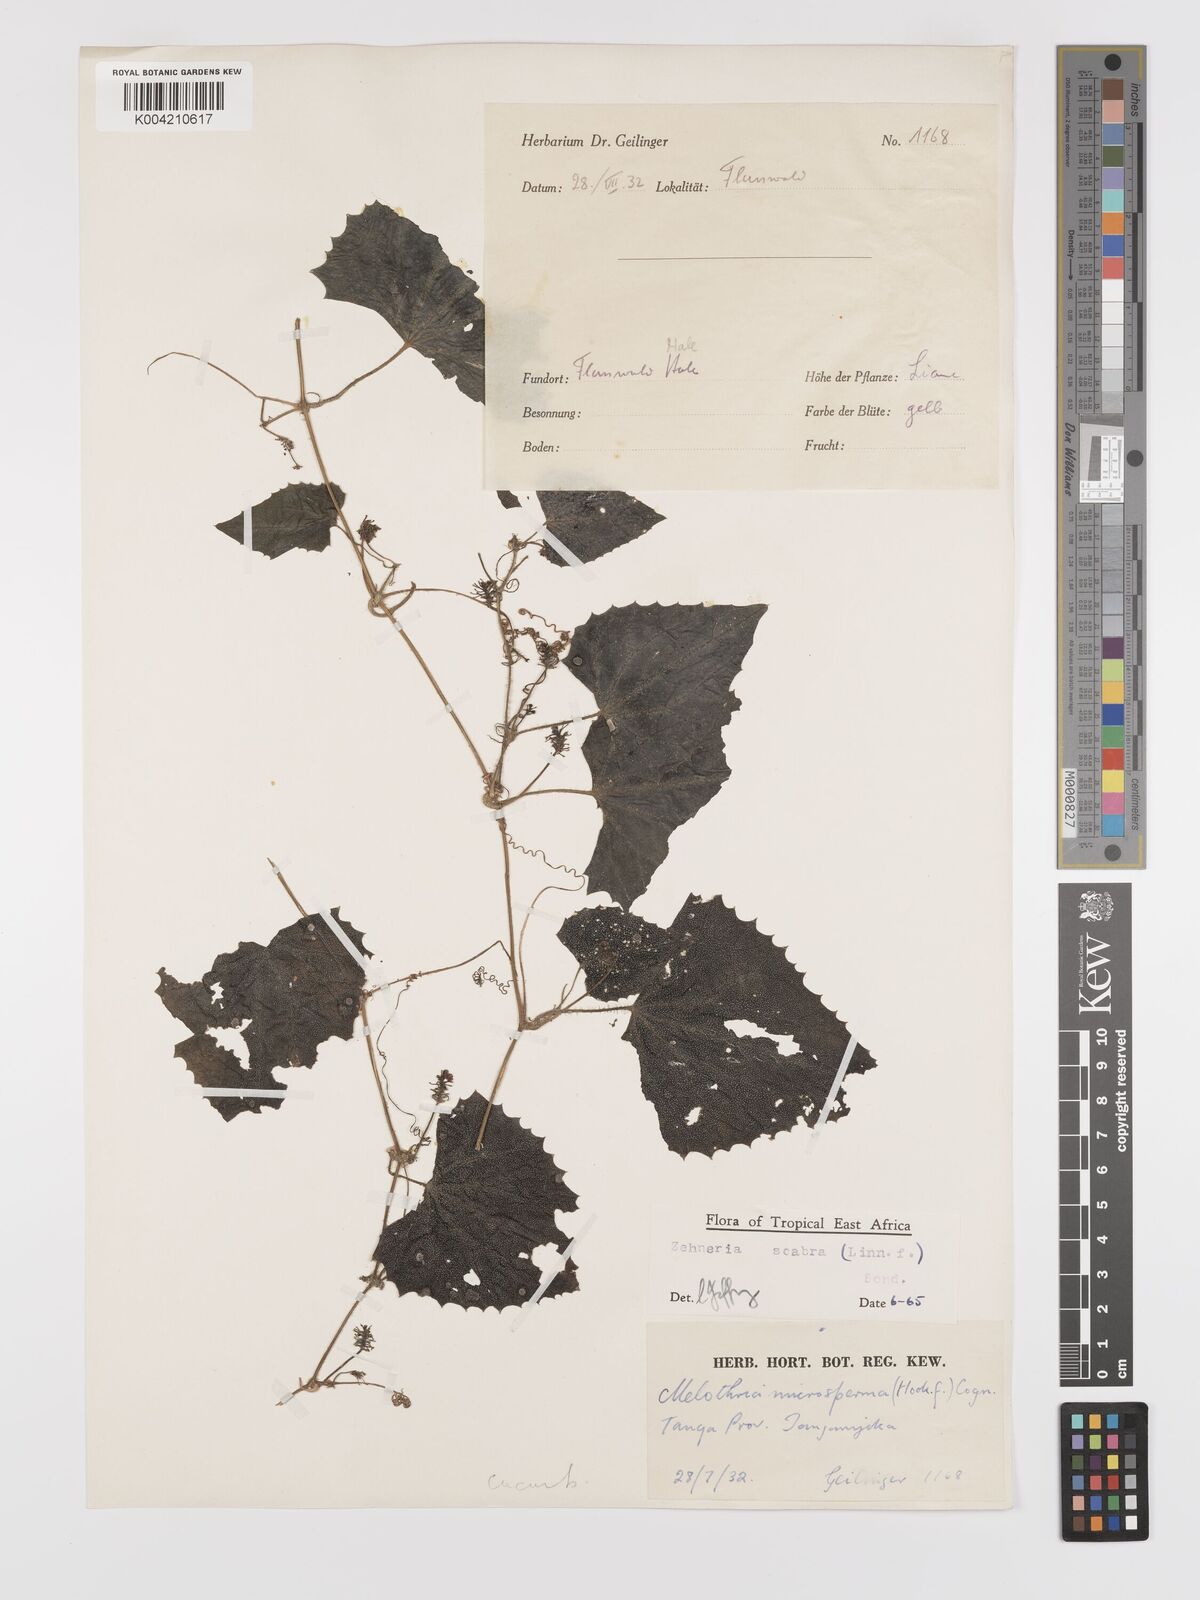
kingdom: Plantae
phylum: Tracheophyta
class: Magnoliopsida
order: Cucurbitales
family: Cucurbitaceae
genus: Zehneria
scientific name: Zehneria scabra
